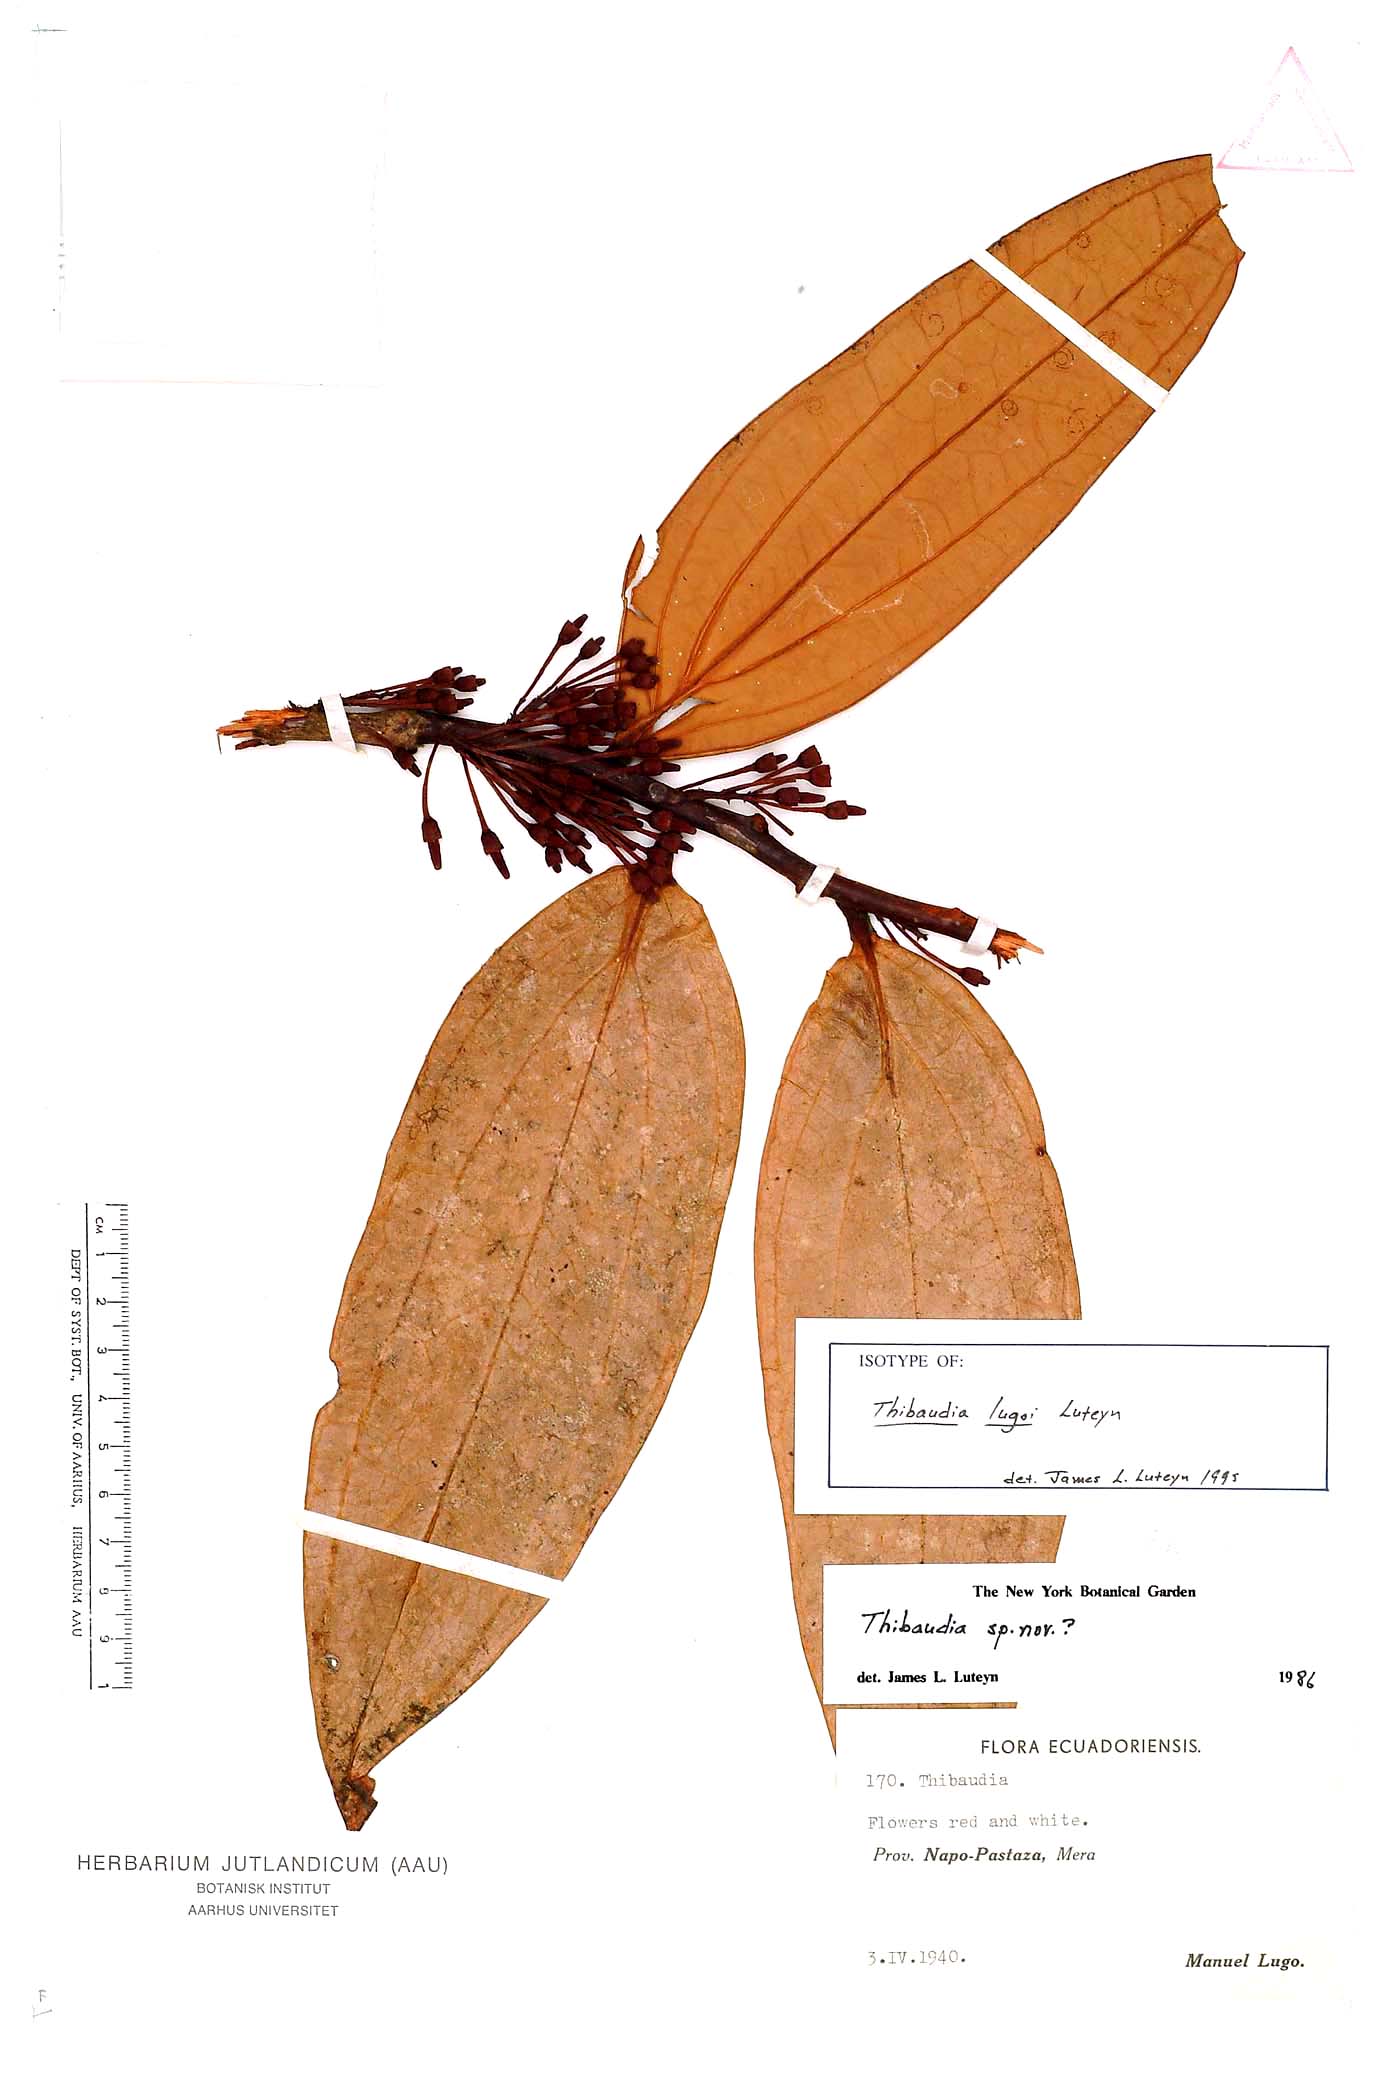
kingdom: Plantae
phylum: Tracheophyta
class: Magnoliopsida
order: Ericales
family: Ericaceae
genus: Thibaudia
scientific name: Thibaudia lugoi
